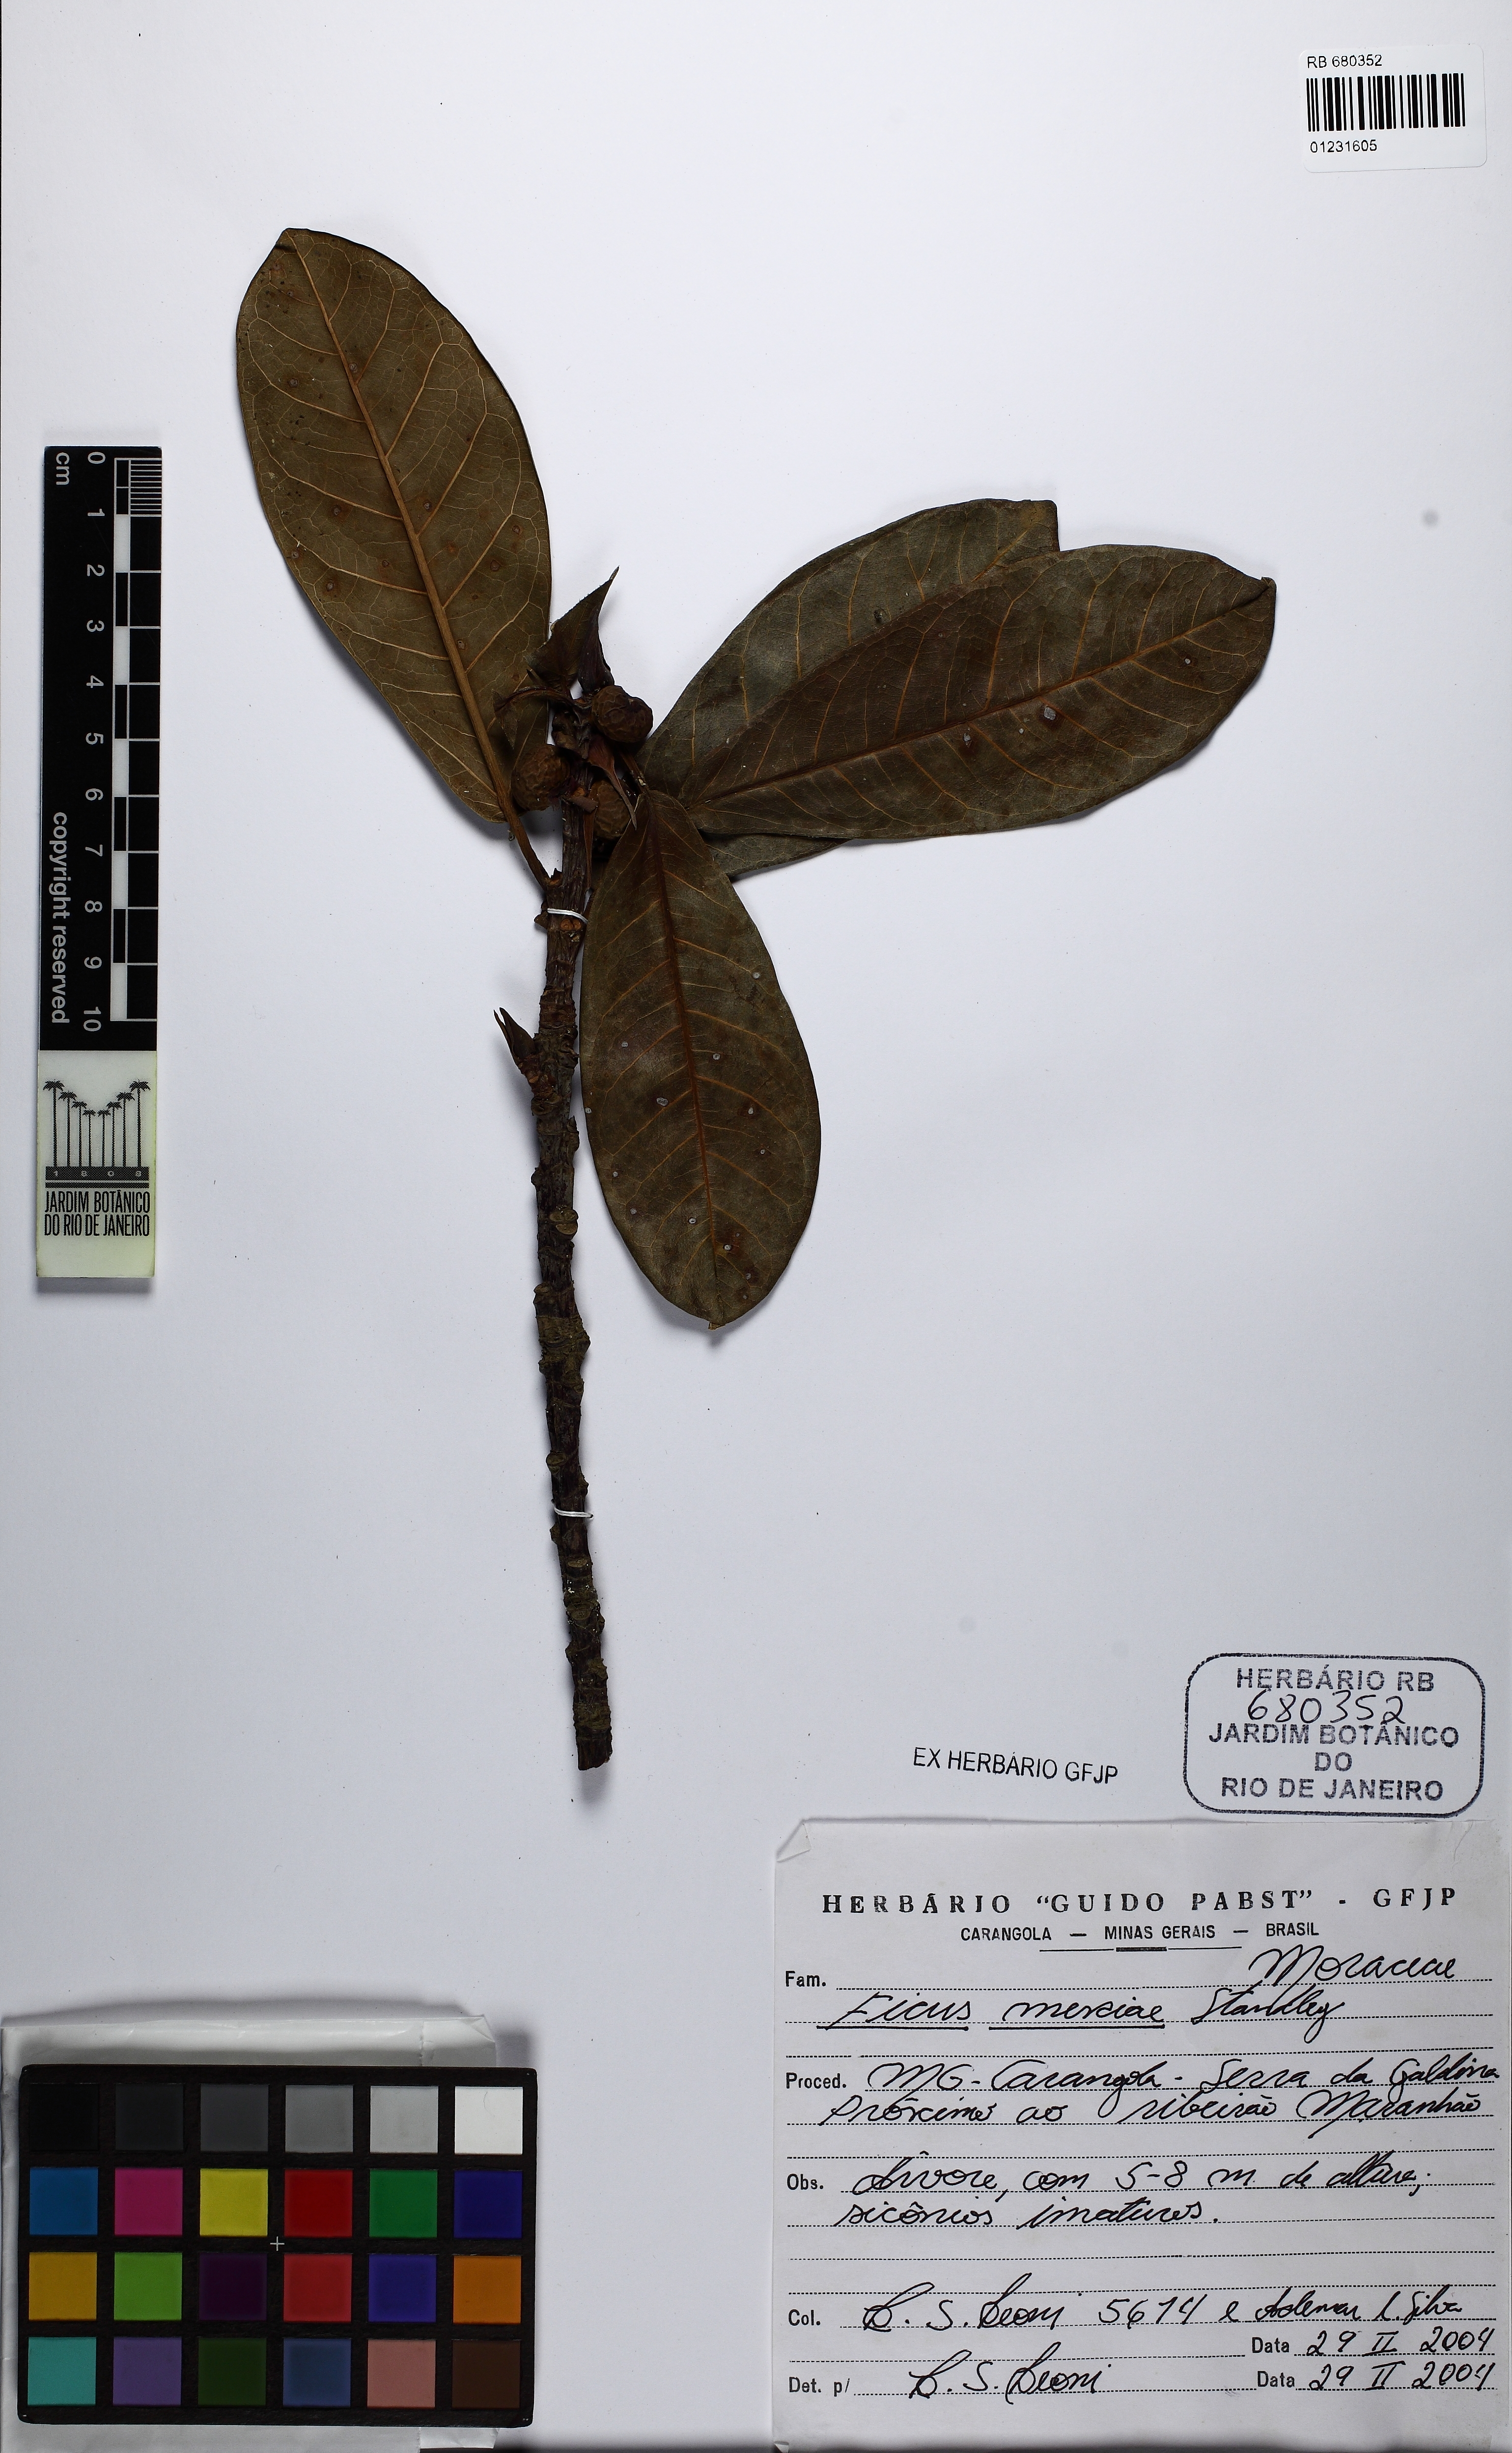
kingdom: Plantae
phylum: Tracheophyta
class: Magnoliopsida
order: Rosales
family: Moraceae
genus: Ficus
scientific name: Ficus mexiae
